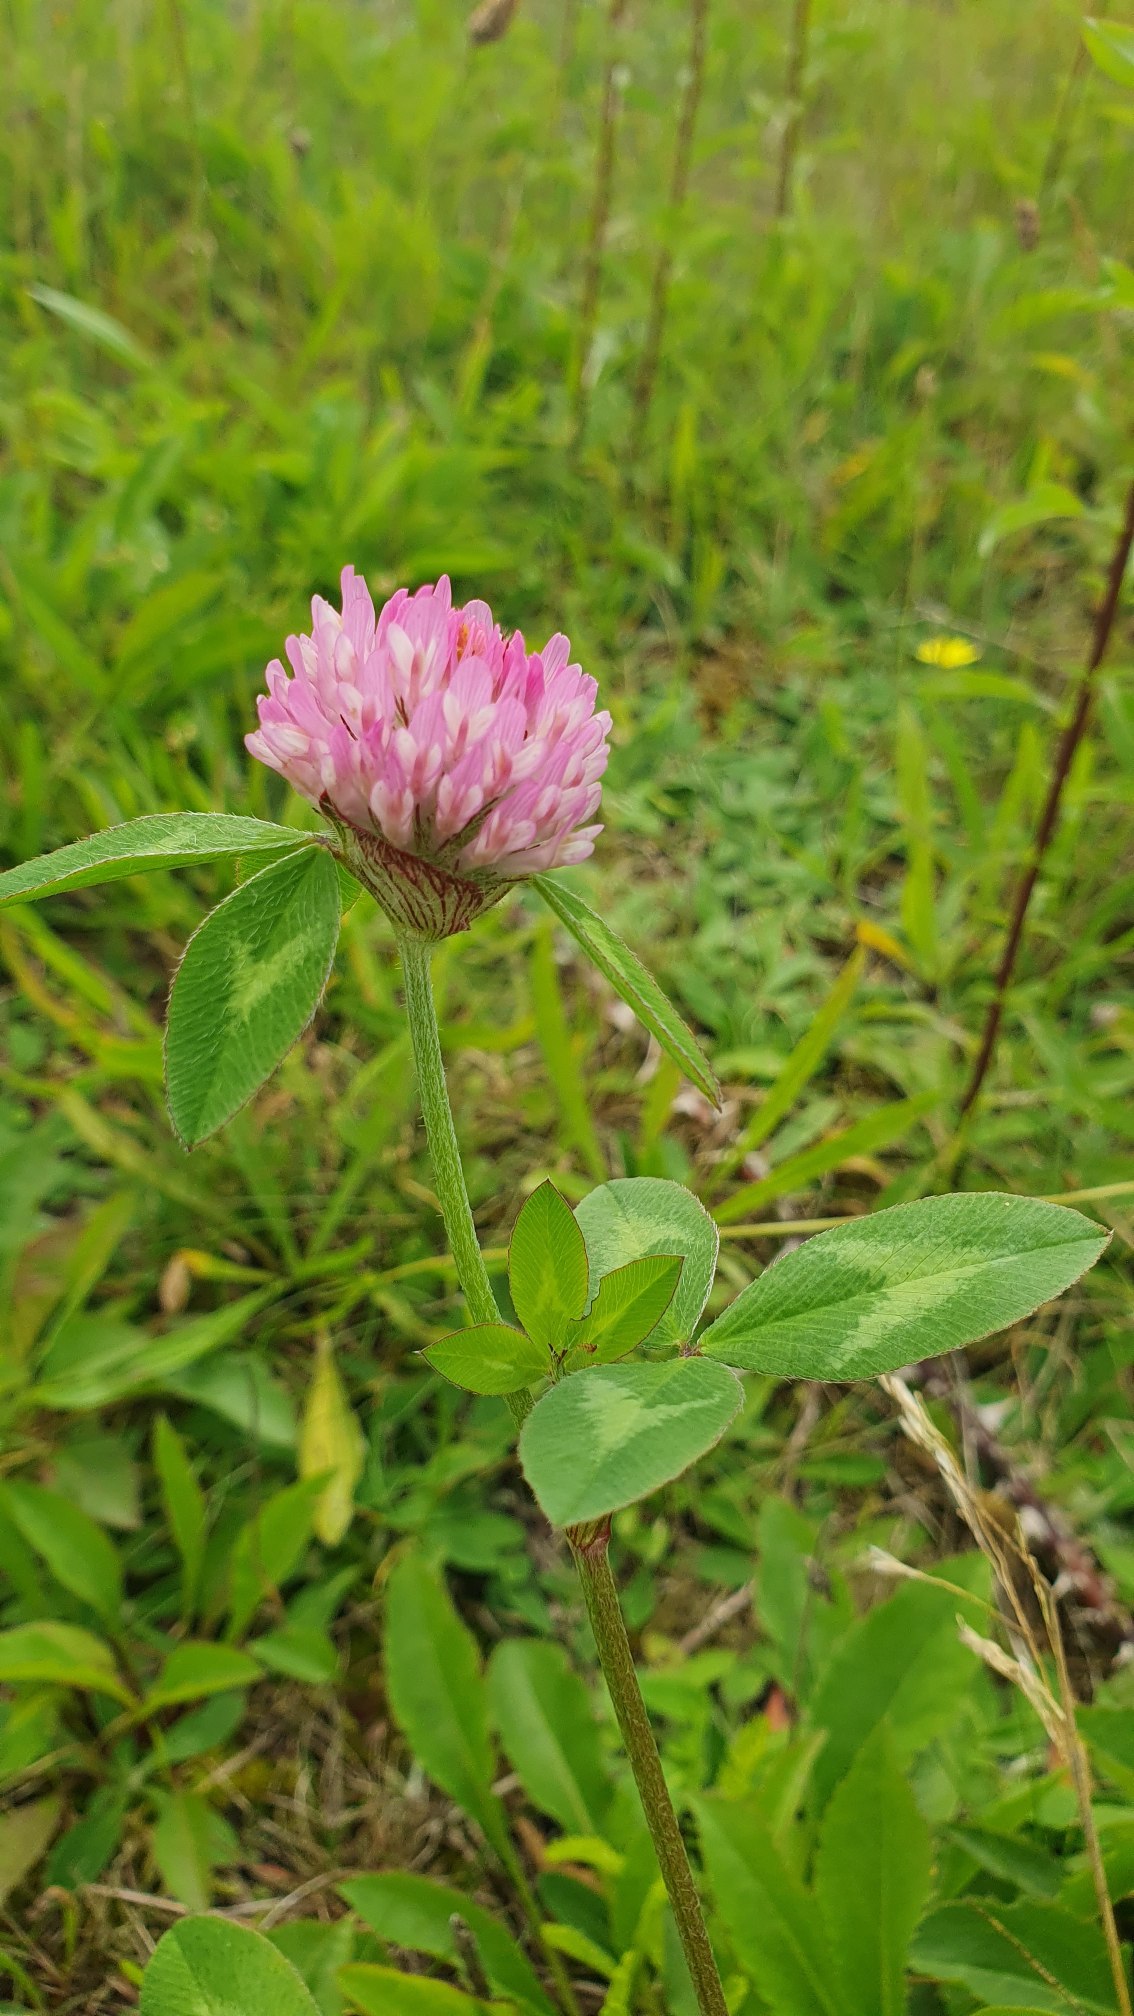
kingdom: Plantae
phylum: Tracheophyta
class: Magnoliopsida
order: Fabales
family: Fabaceae
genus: Trifolium
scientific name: Trifolium pratense
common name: Rød-kløver
